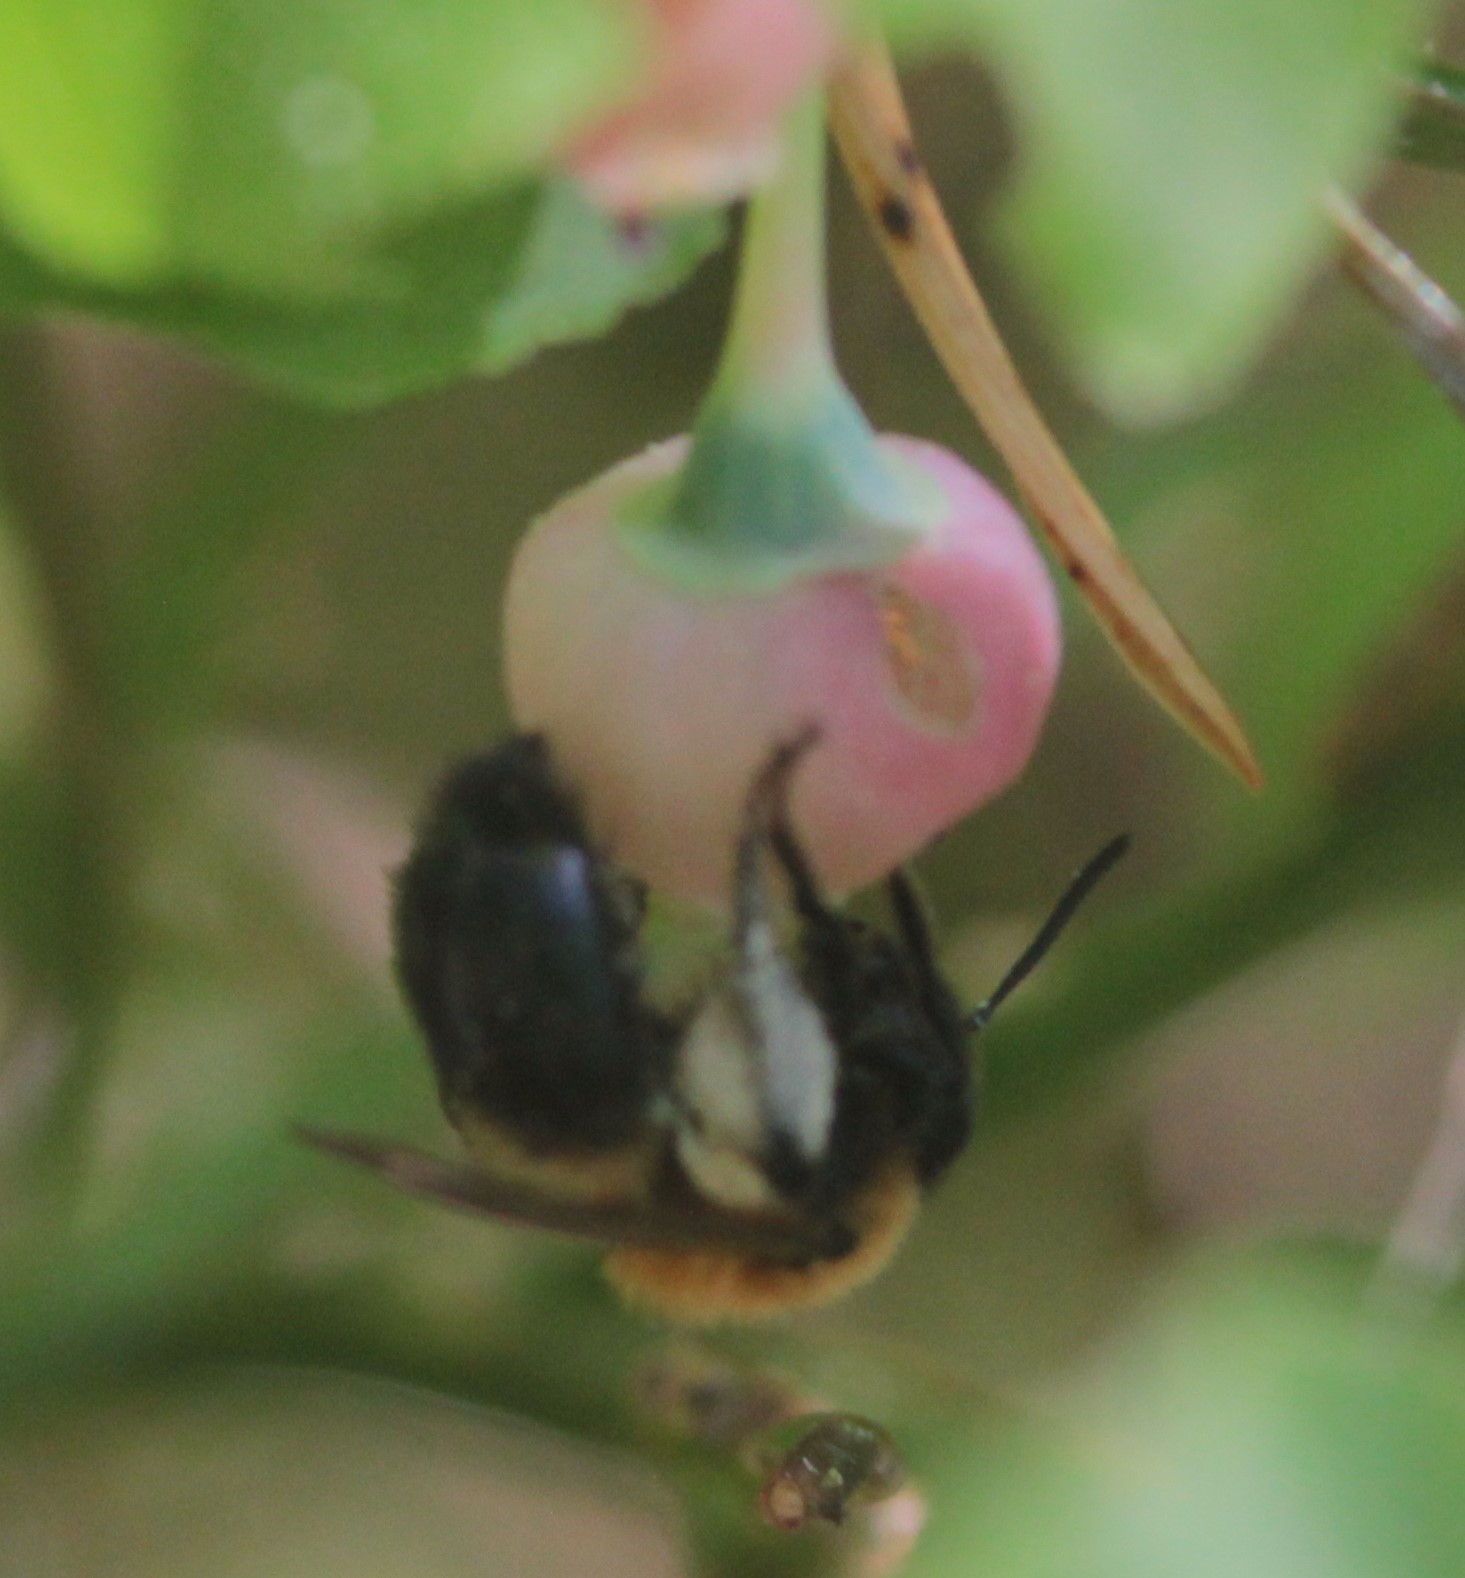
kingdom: Animalia
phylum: Arthropoda
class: Insecta
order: Hymenoptera
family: Andrenidae
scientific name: Andrenidae
